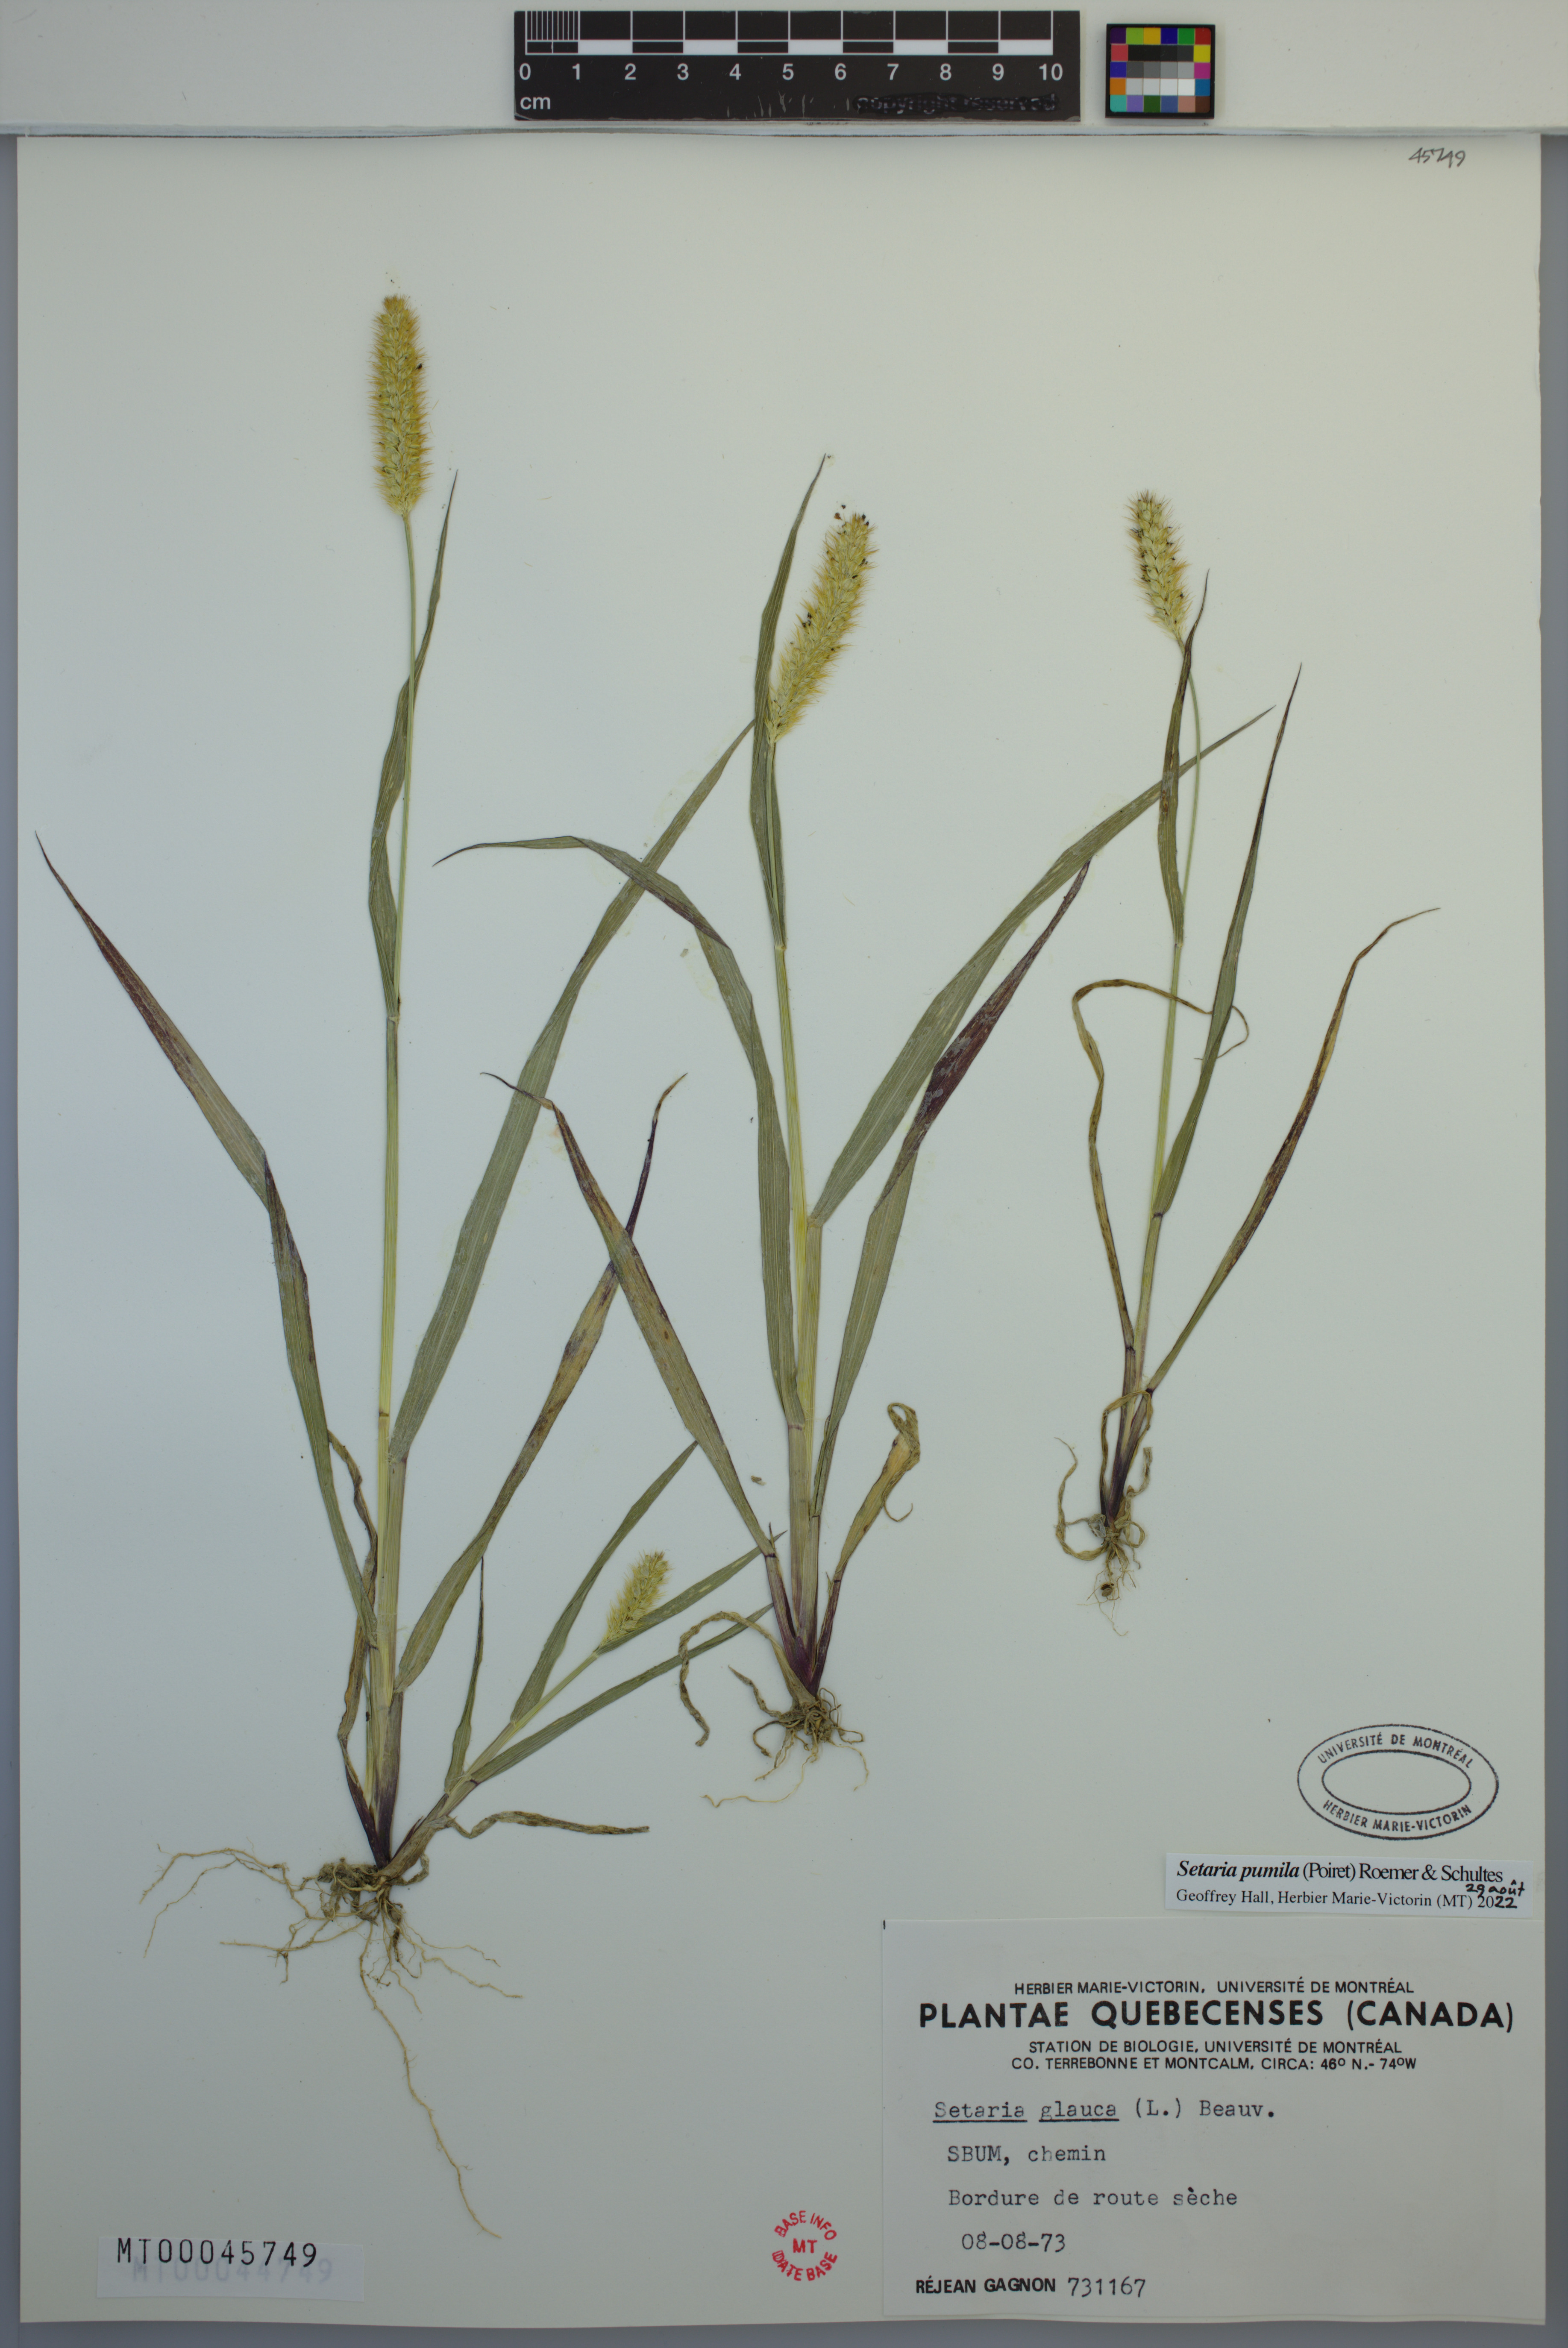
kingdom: Plantae
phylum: Tracheophyta
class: Liliopsida
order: Poales
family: Poaceae
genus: Setaria
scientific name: Setaria pumila
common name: Yellow bristle-grass
